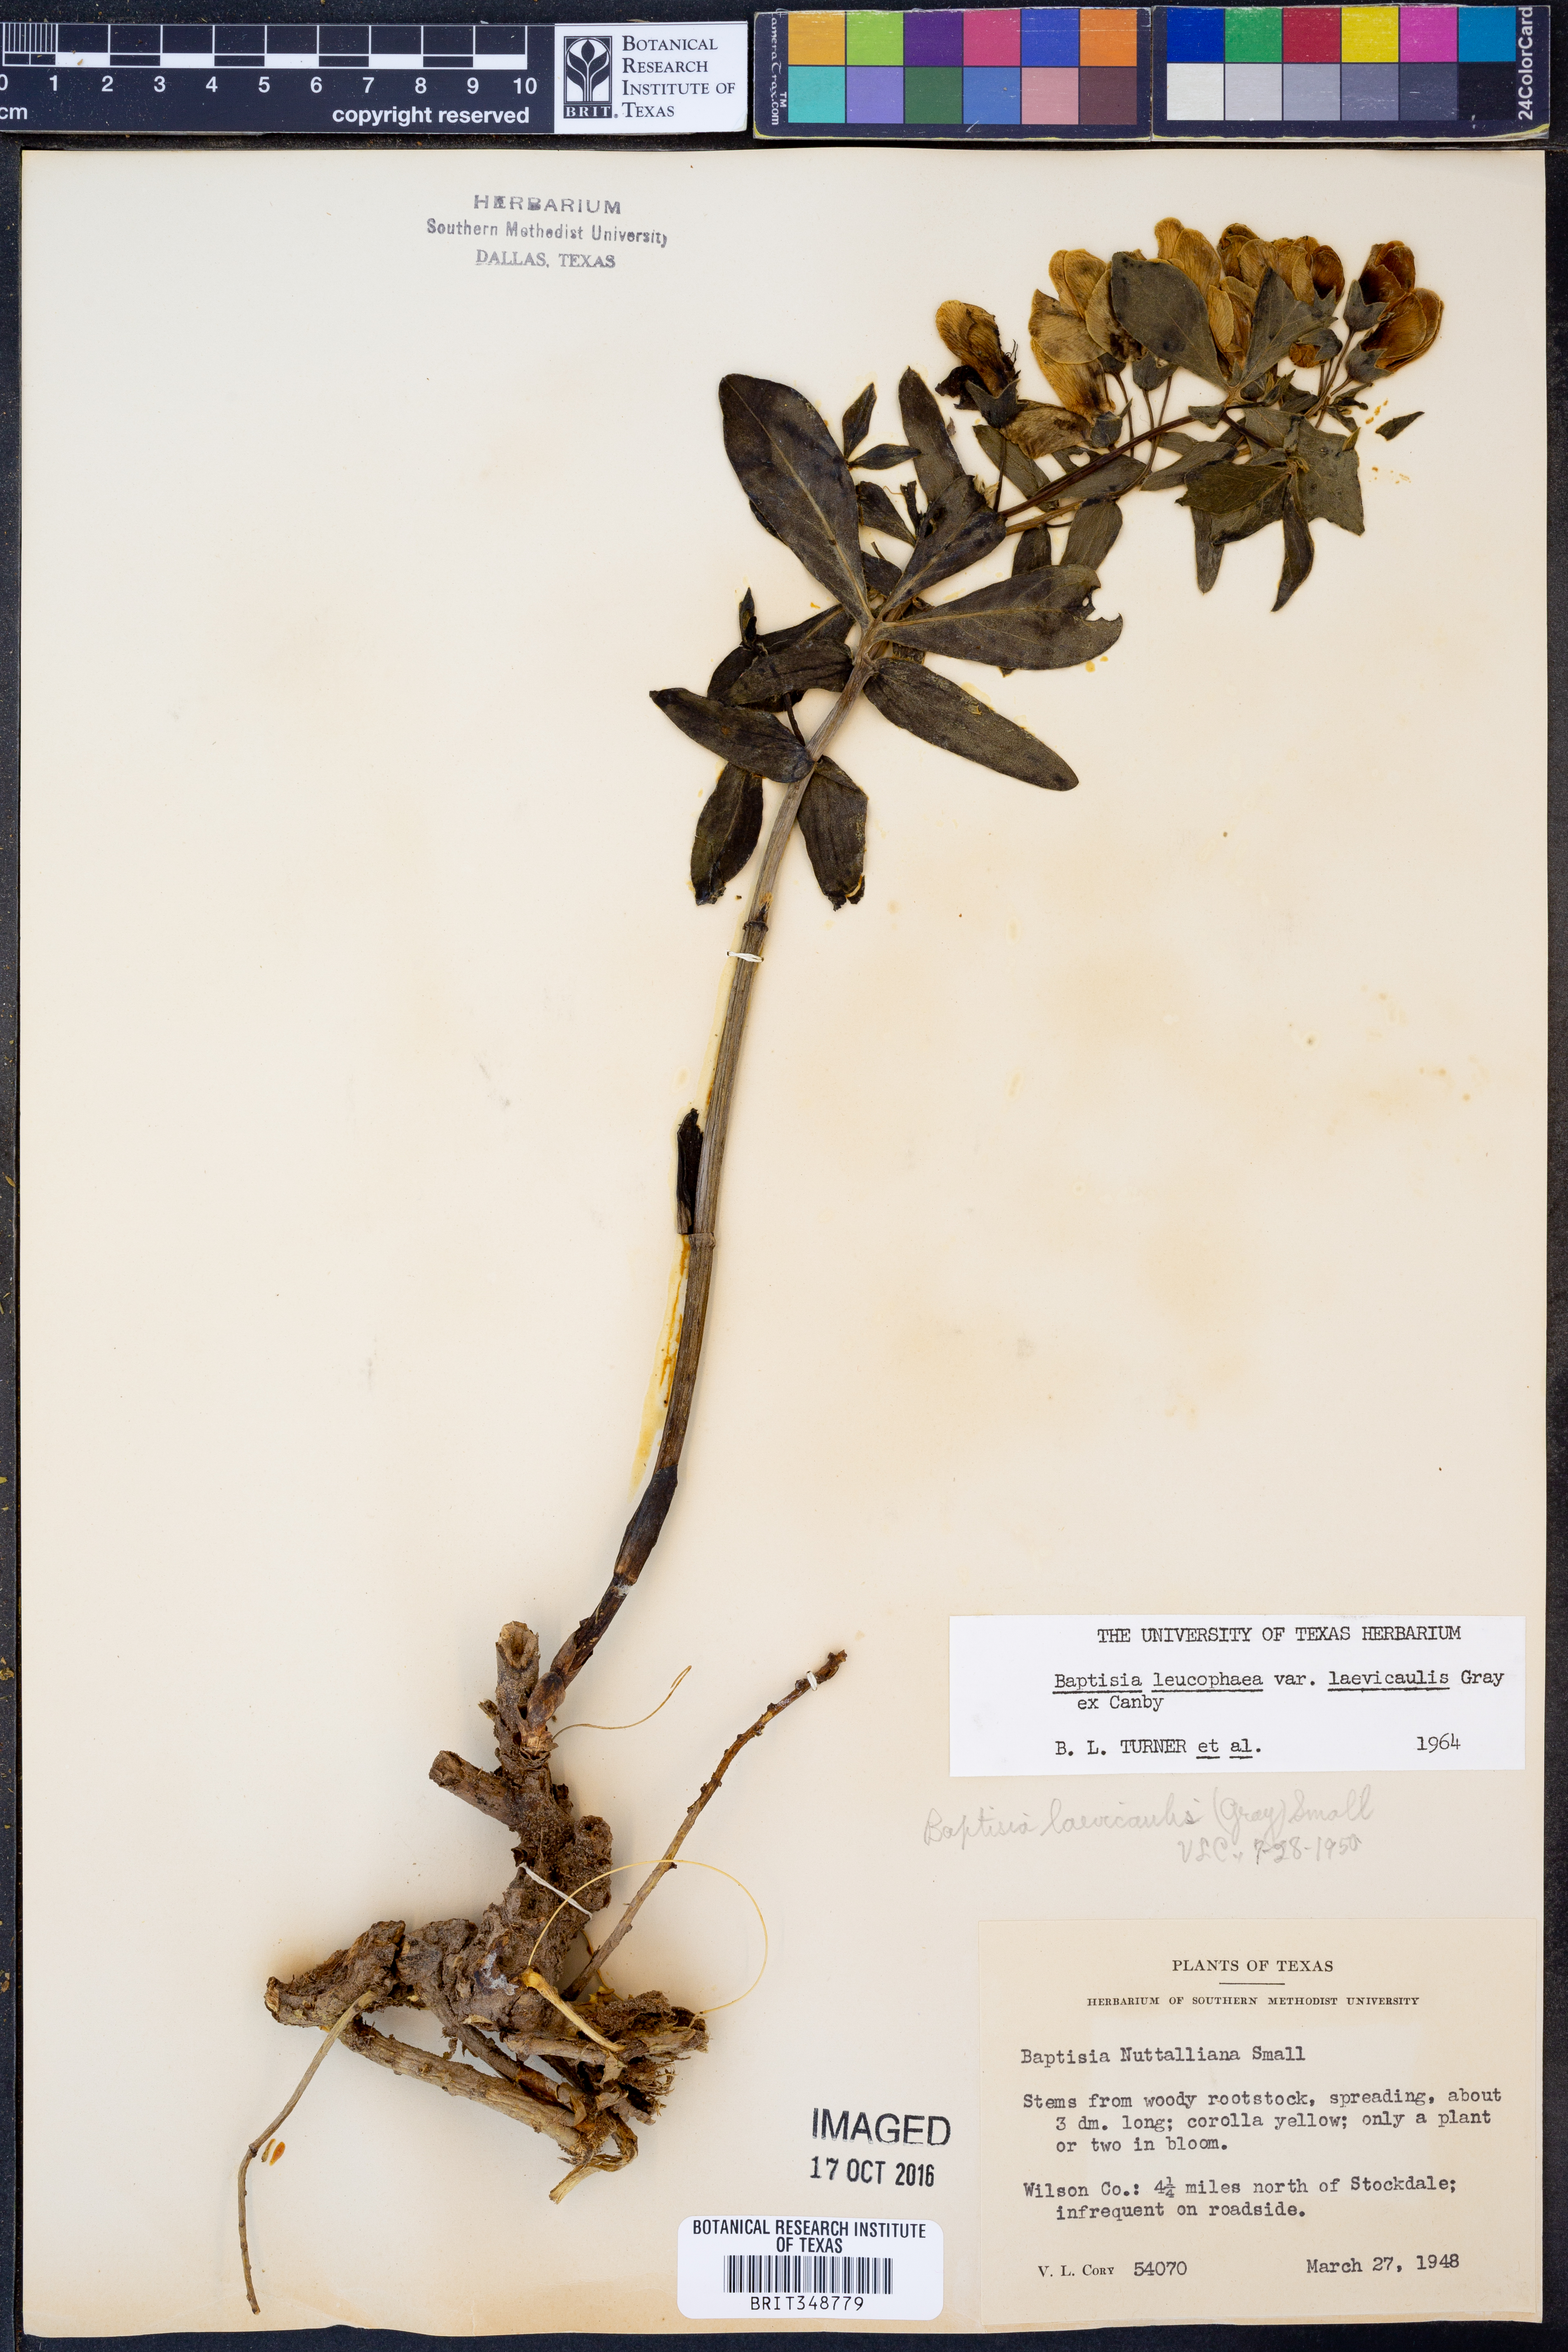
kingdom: Plantae
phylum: Tracheophyta
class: Magnoliopsida
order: Fabales
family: Fabaceae
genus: Baptisia
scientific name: Baptisia bracteata
